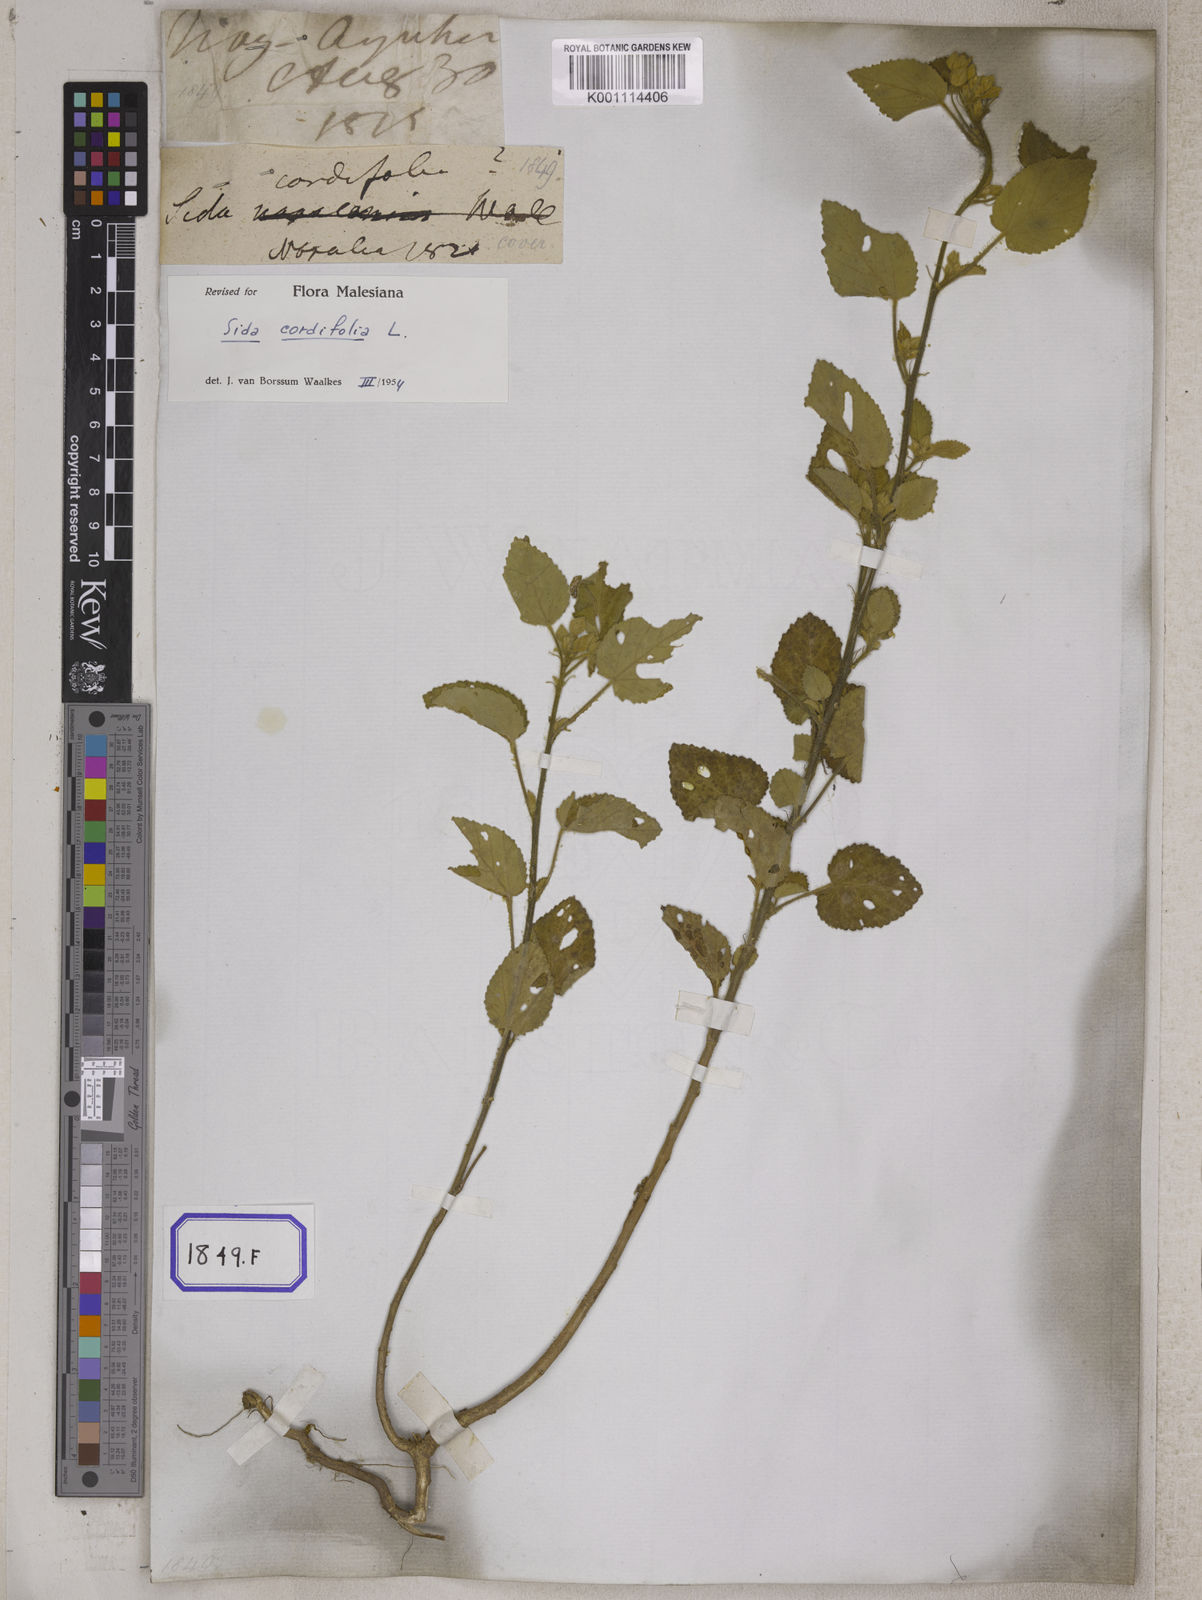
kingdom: Plantae
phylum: Tracheophyta
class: Magnoliopsida
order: Malvales
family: Malvaceae
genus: Sida
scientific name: Sida cordifolia
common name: Ilima
